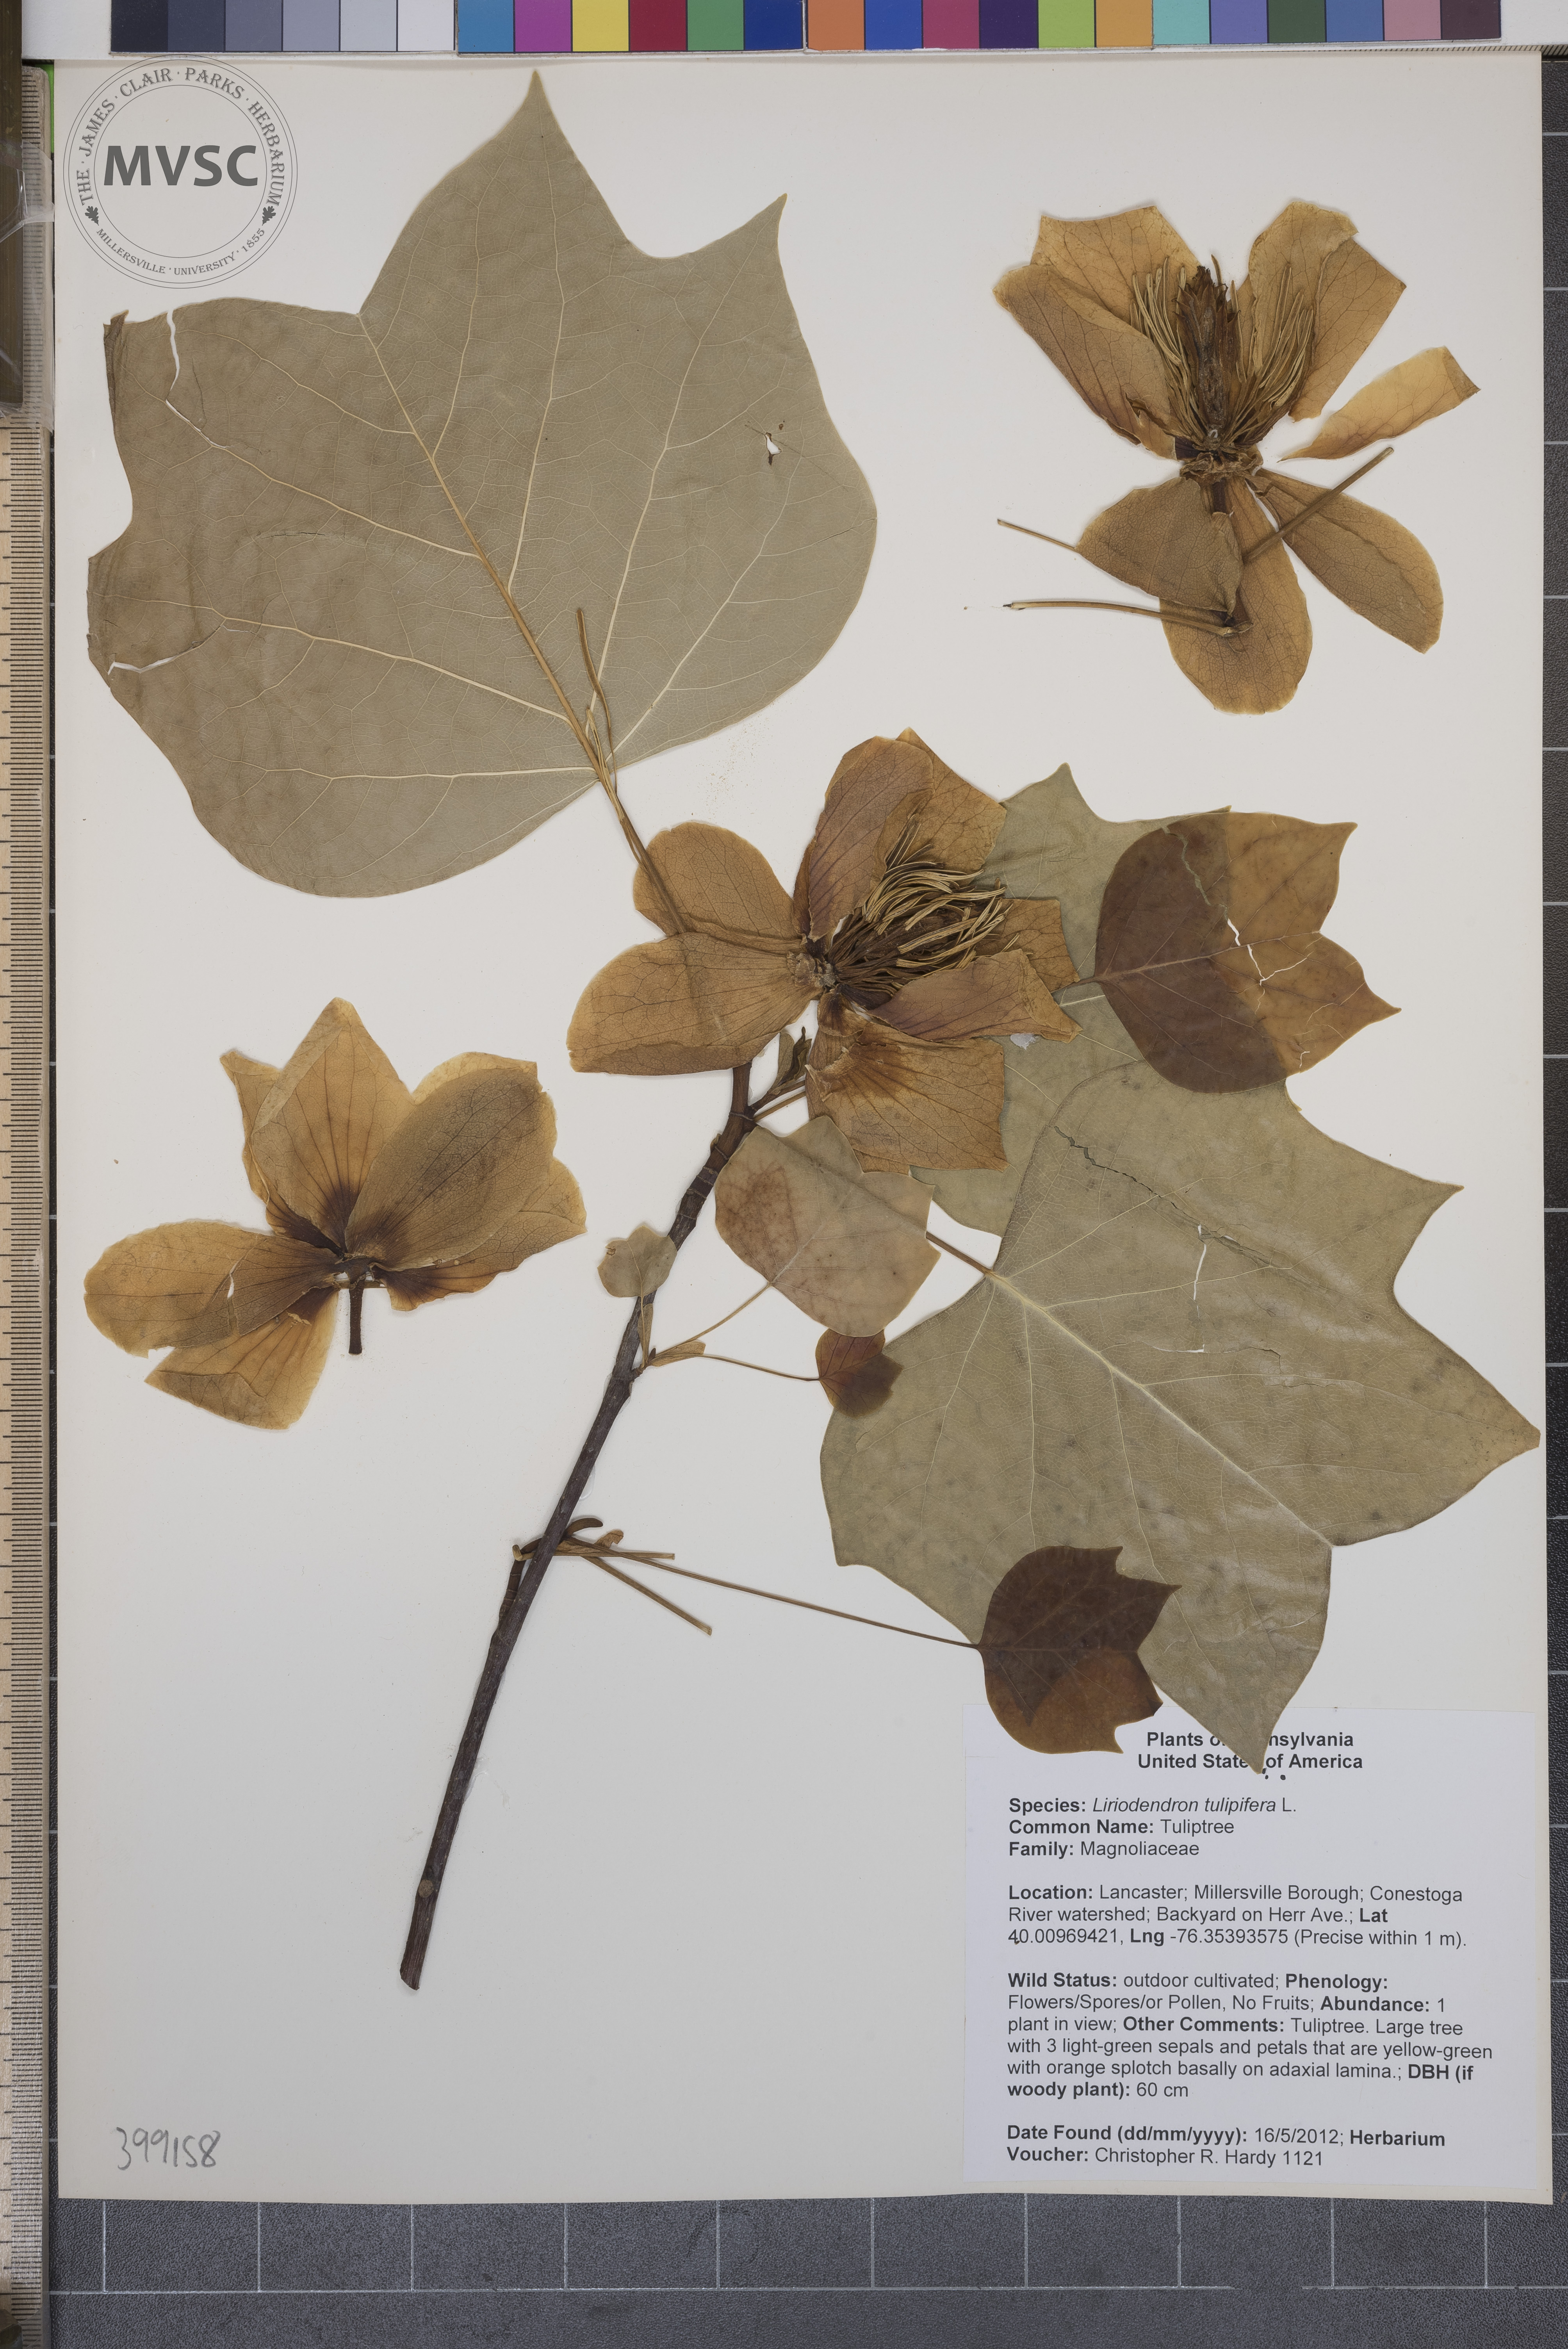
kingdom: Plantae
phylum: Tracheophyta
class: Magnoliopsida
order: Magnoliales
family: Magnoliaceae
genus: Liriodendron
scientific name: Liriodendron tulipifera
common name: Tuliptree
